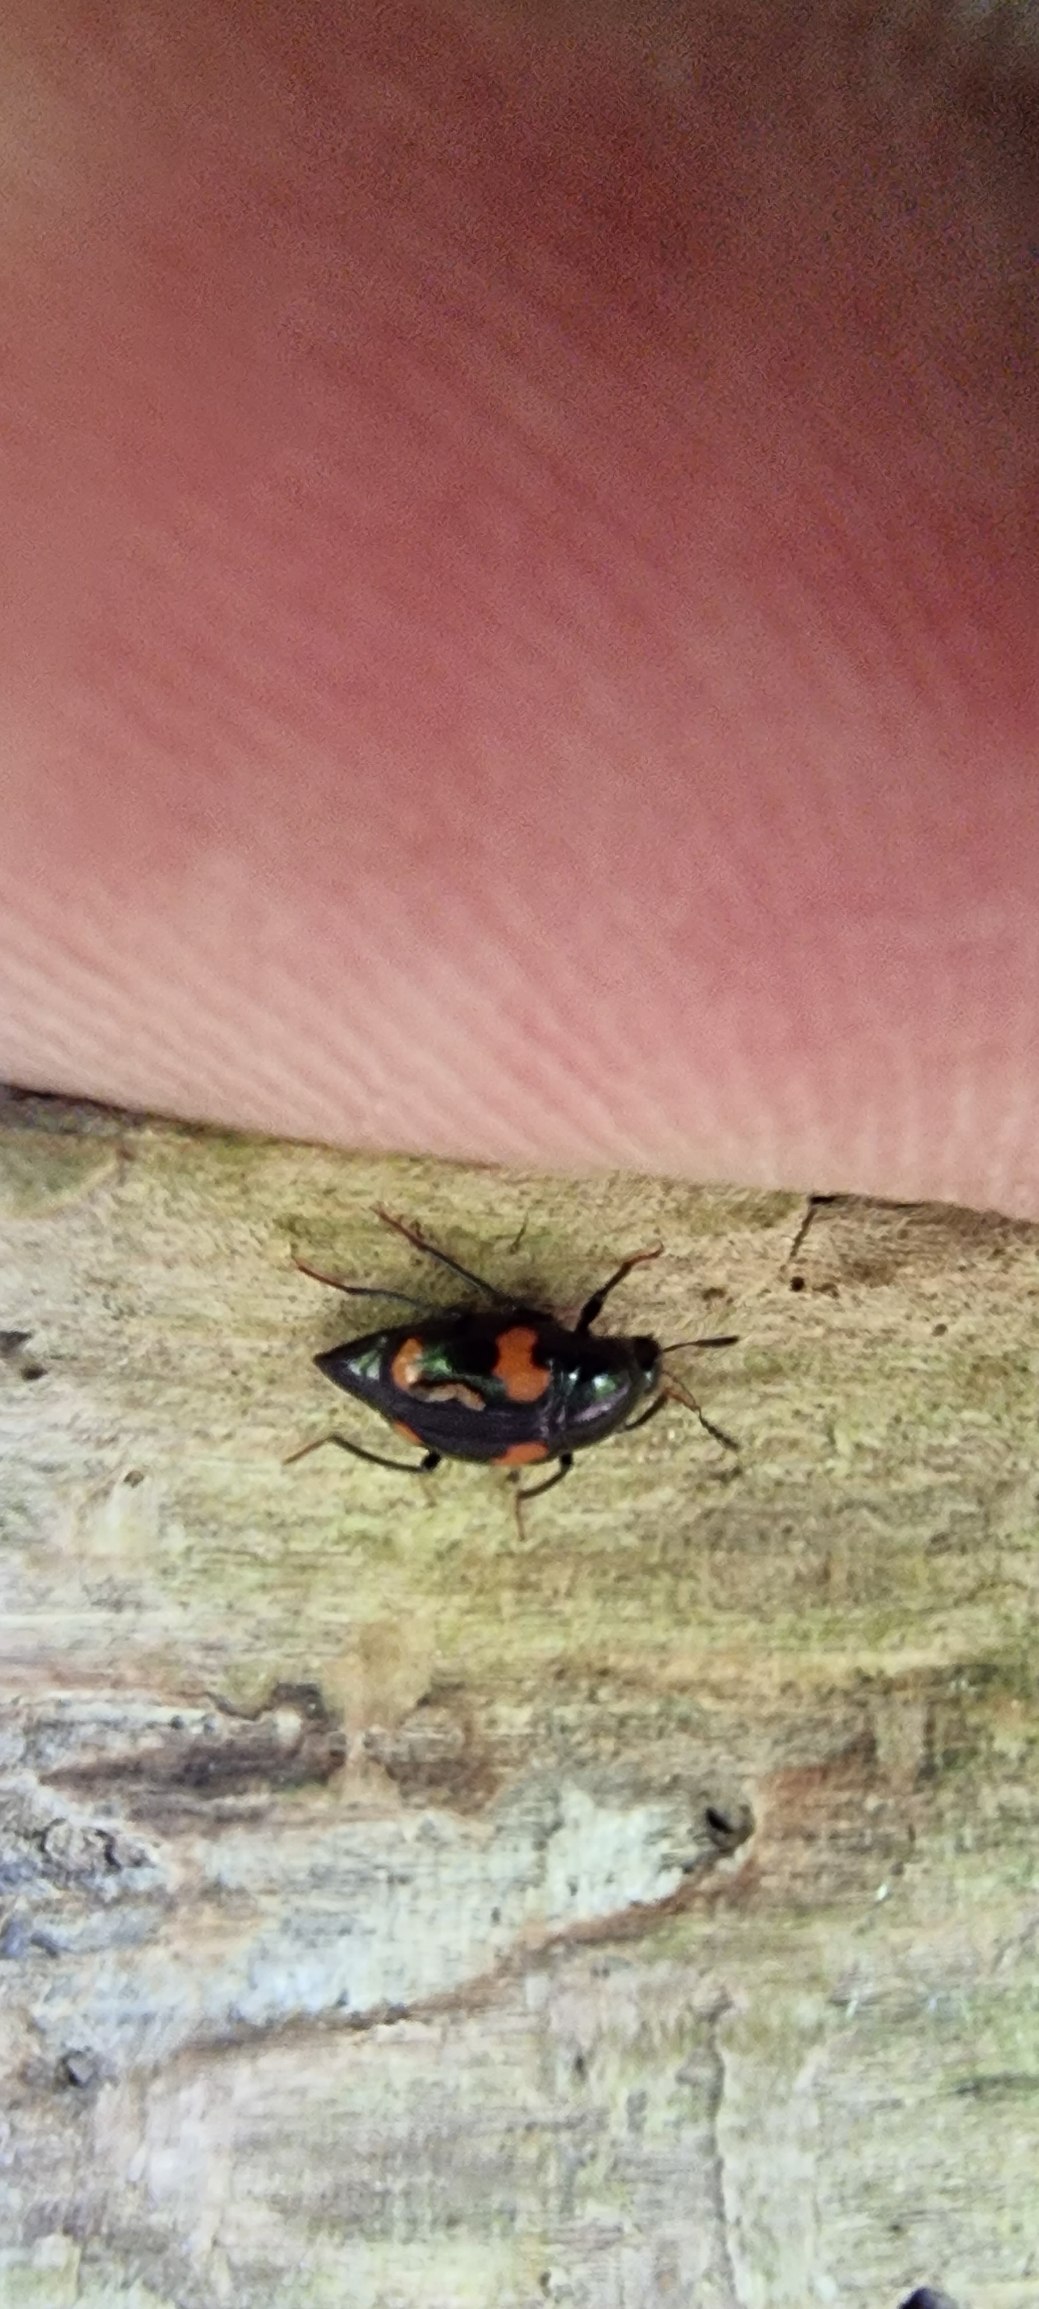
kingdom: Animalia
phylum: Arthropoda
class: Insecta
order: Coleoptera
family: Staphylinidae
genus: Scaphidium
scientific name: Scaphidium quadrimaculatum
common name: Dråberovbille
